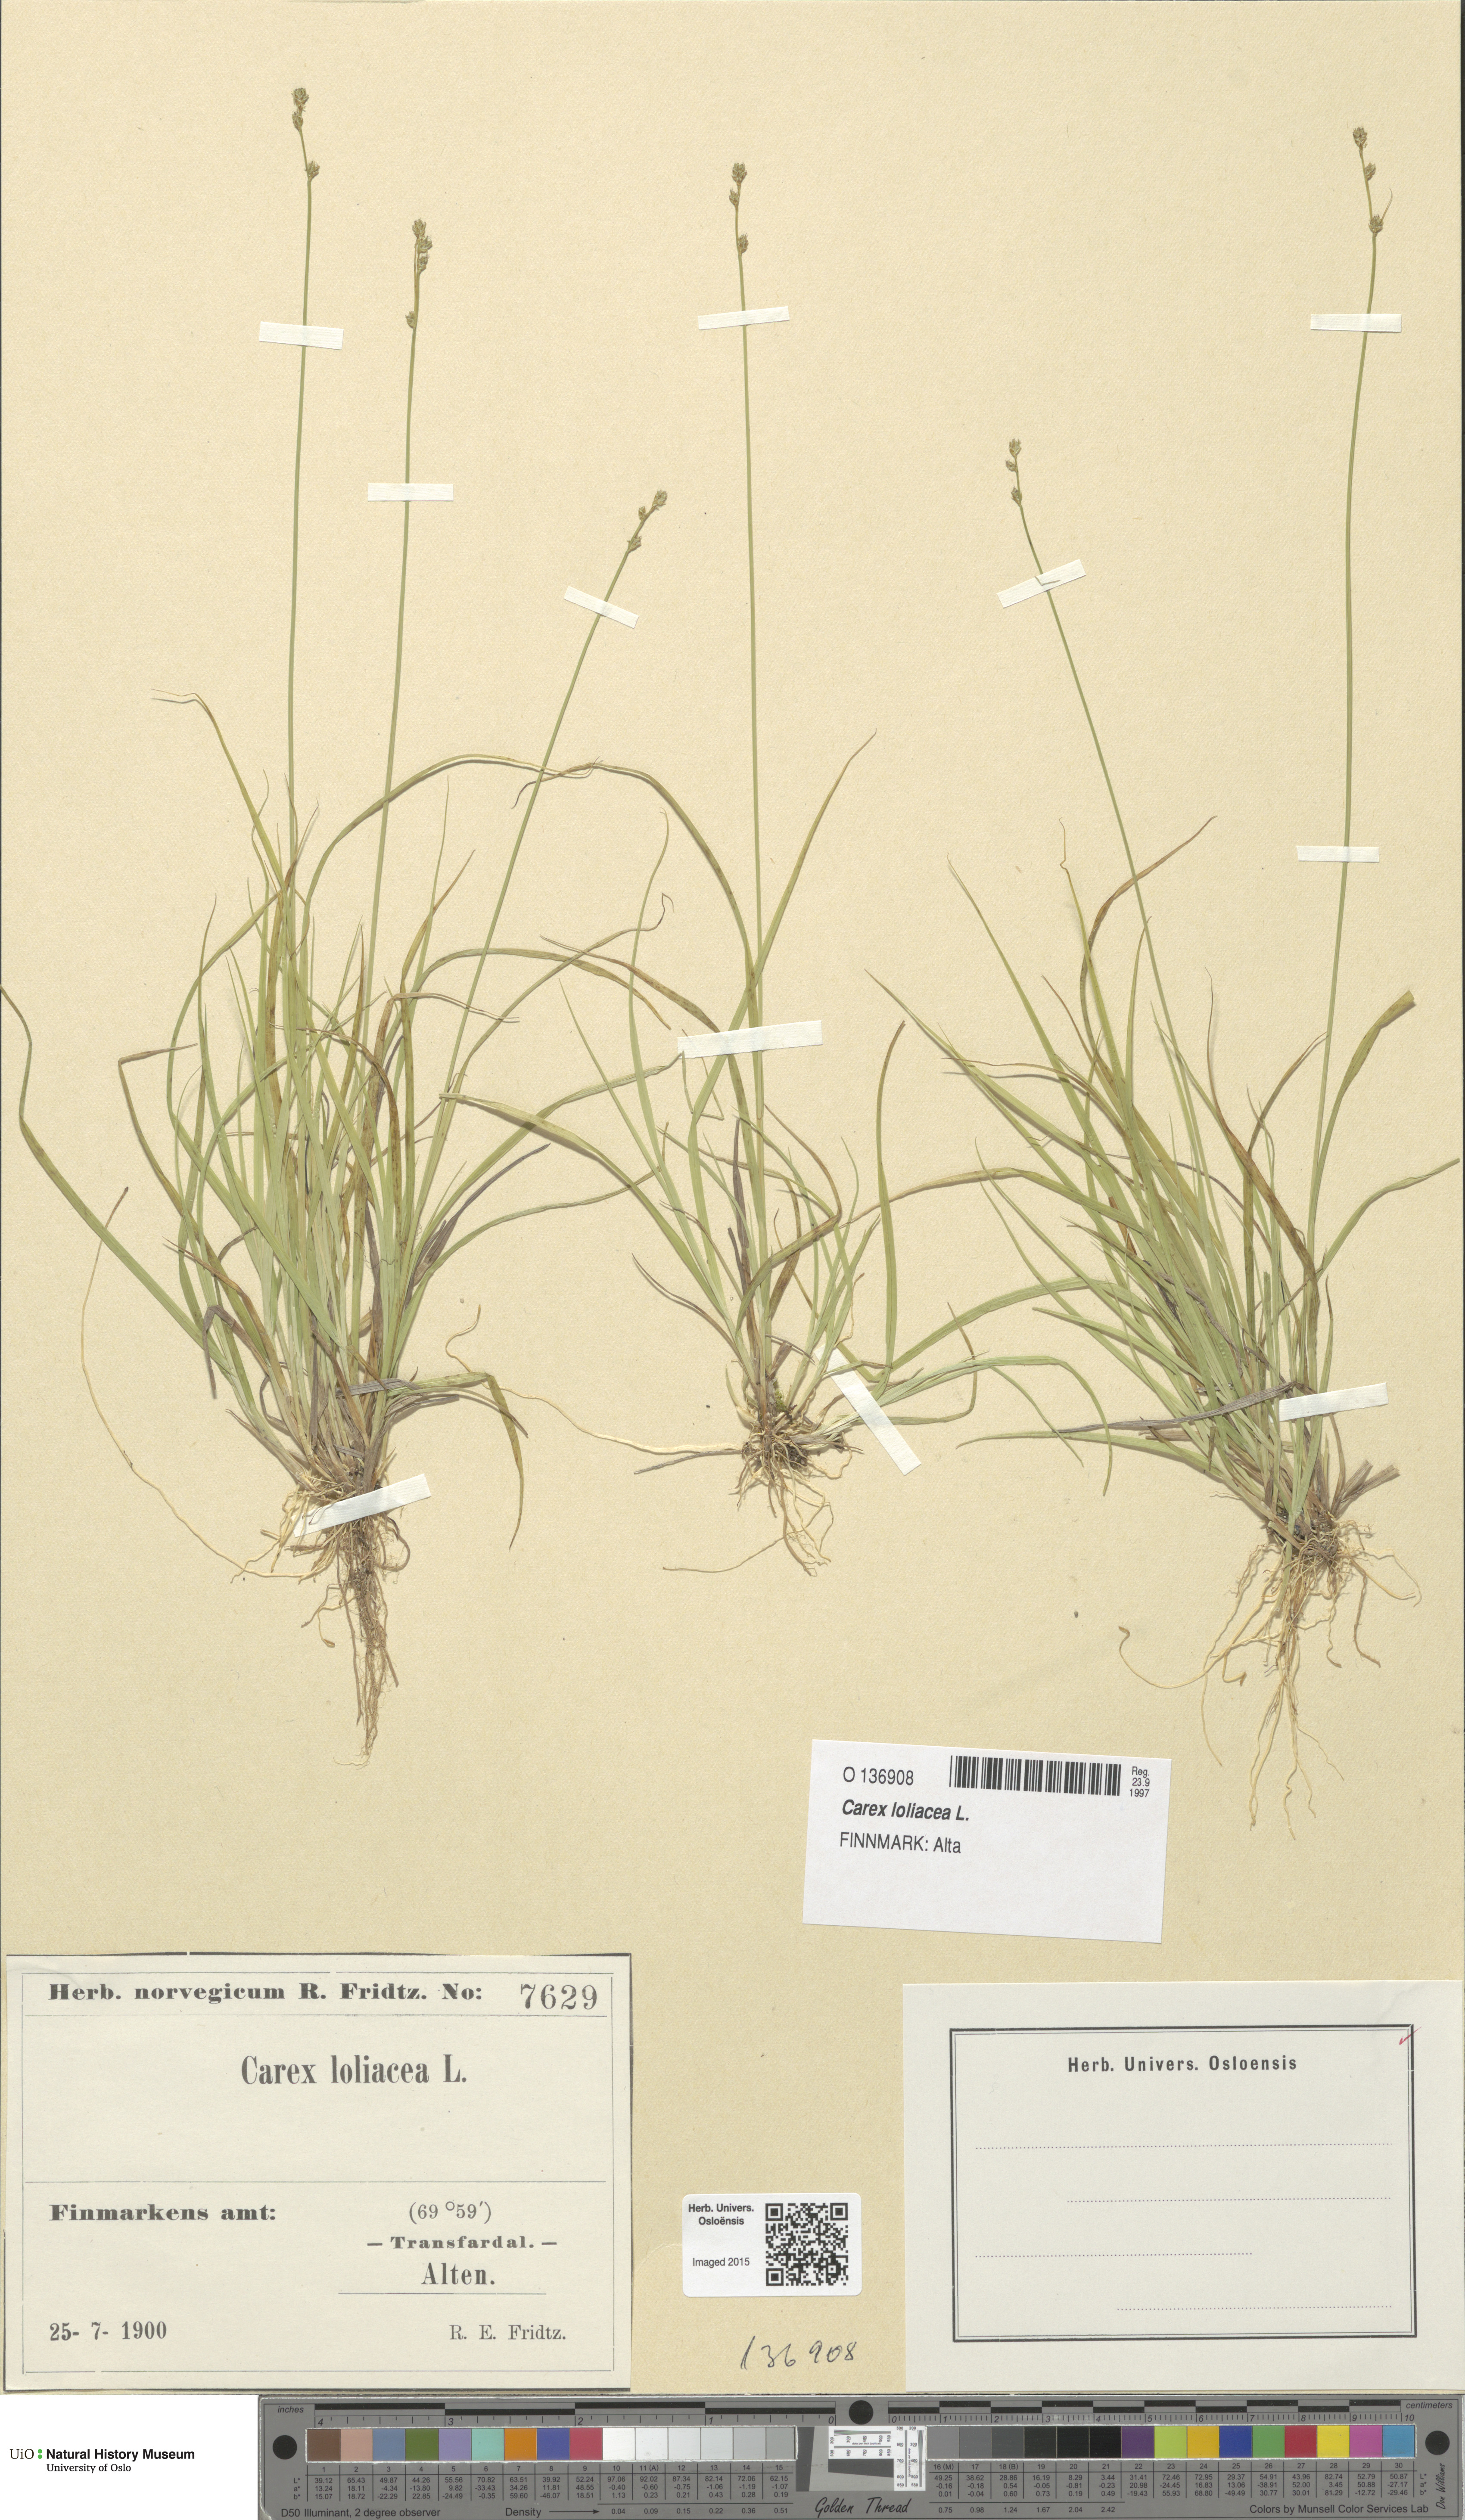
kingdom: Plantae
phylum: Tracheophyta
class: Liliopsida
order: Poales
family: Cyperaceae
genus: Carex
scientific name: Carex loliacea
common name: Ryegrass sedge
